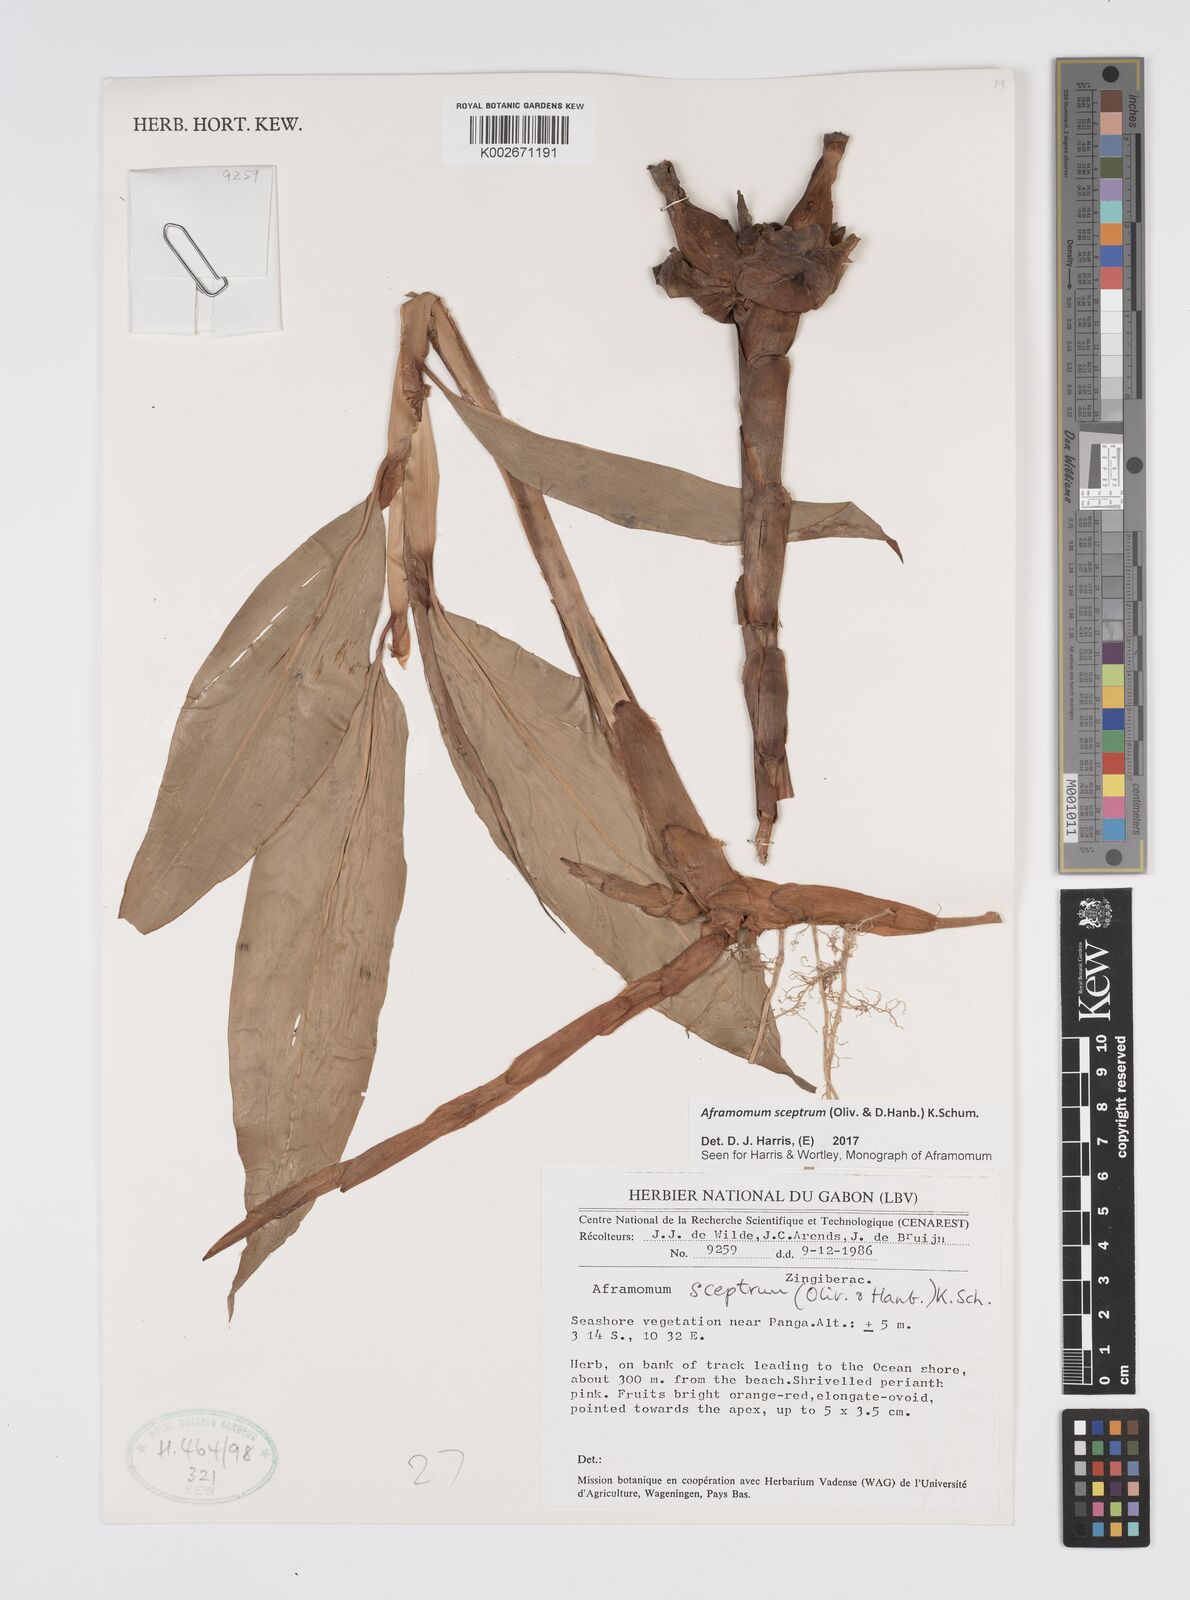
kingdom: Plantae
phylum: Tracheophyta
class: Liliopsida
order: Zingiberales
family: Zingiberaceae
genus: Aframomum
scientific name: Aframomum cereum
